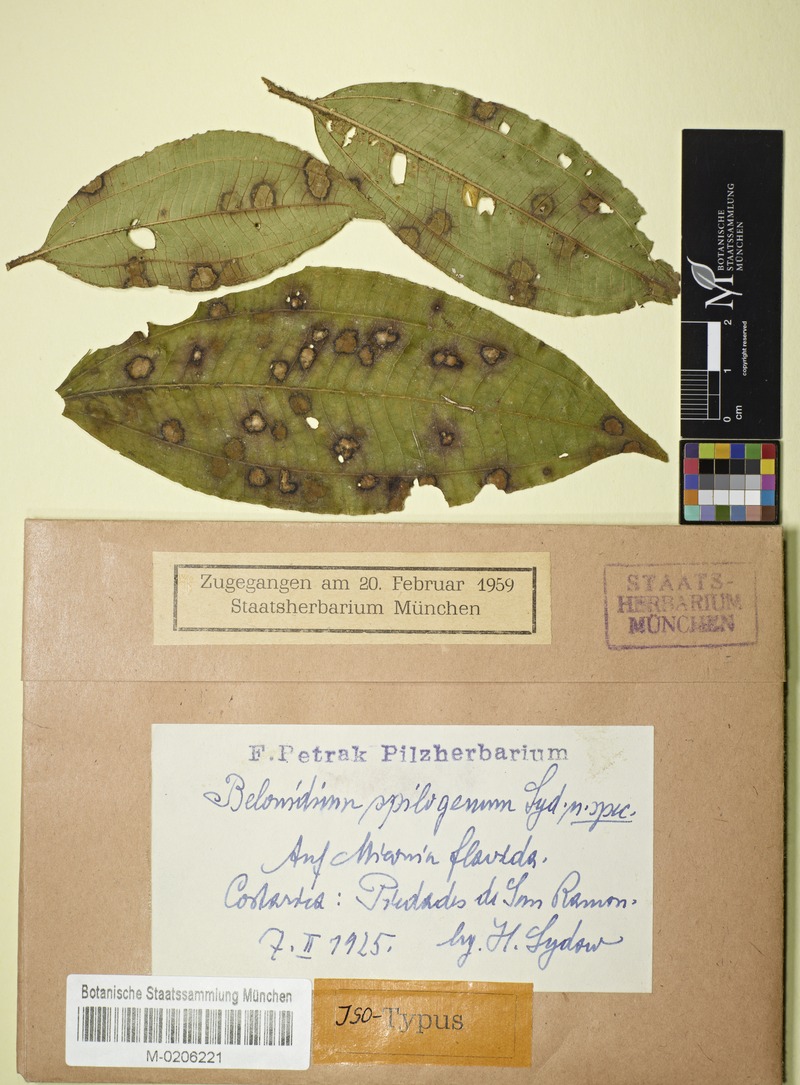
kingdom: Fungi
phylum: Ascomycota
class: Leotiomycetes
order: Helotiales
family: Lachnaceae
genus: Belonidium
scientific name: Belonidium spilogenum
